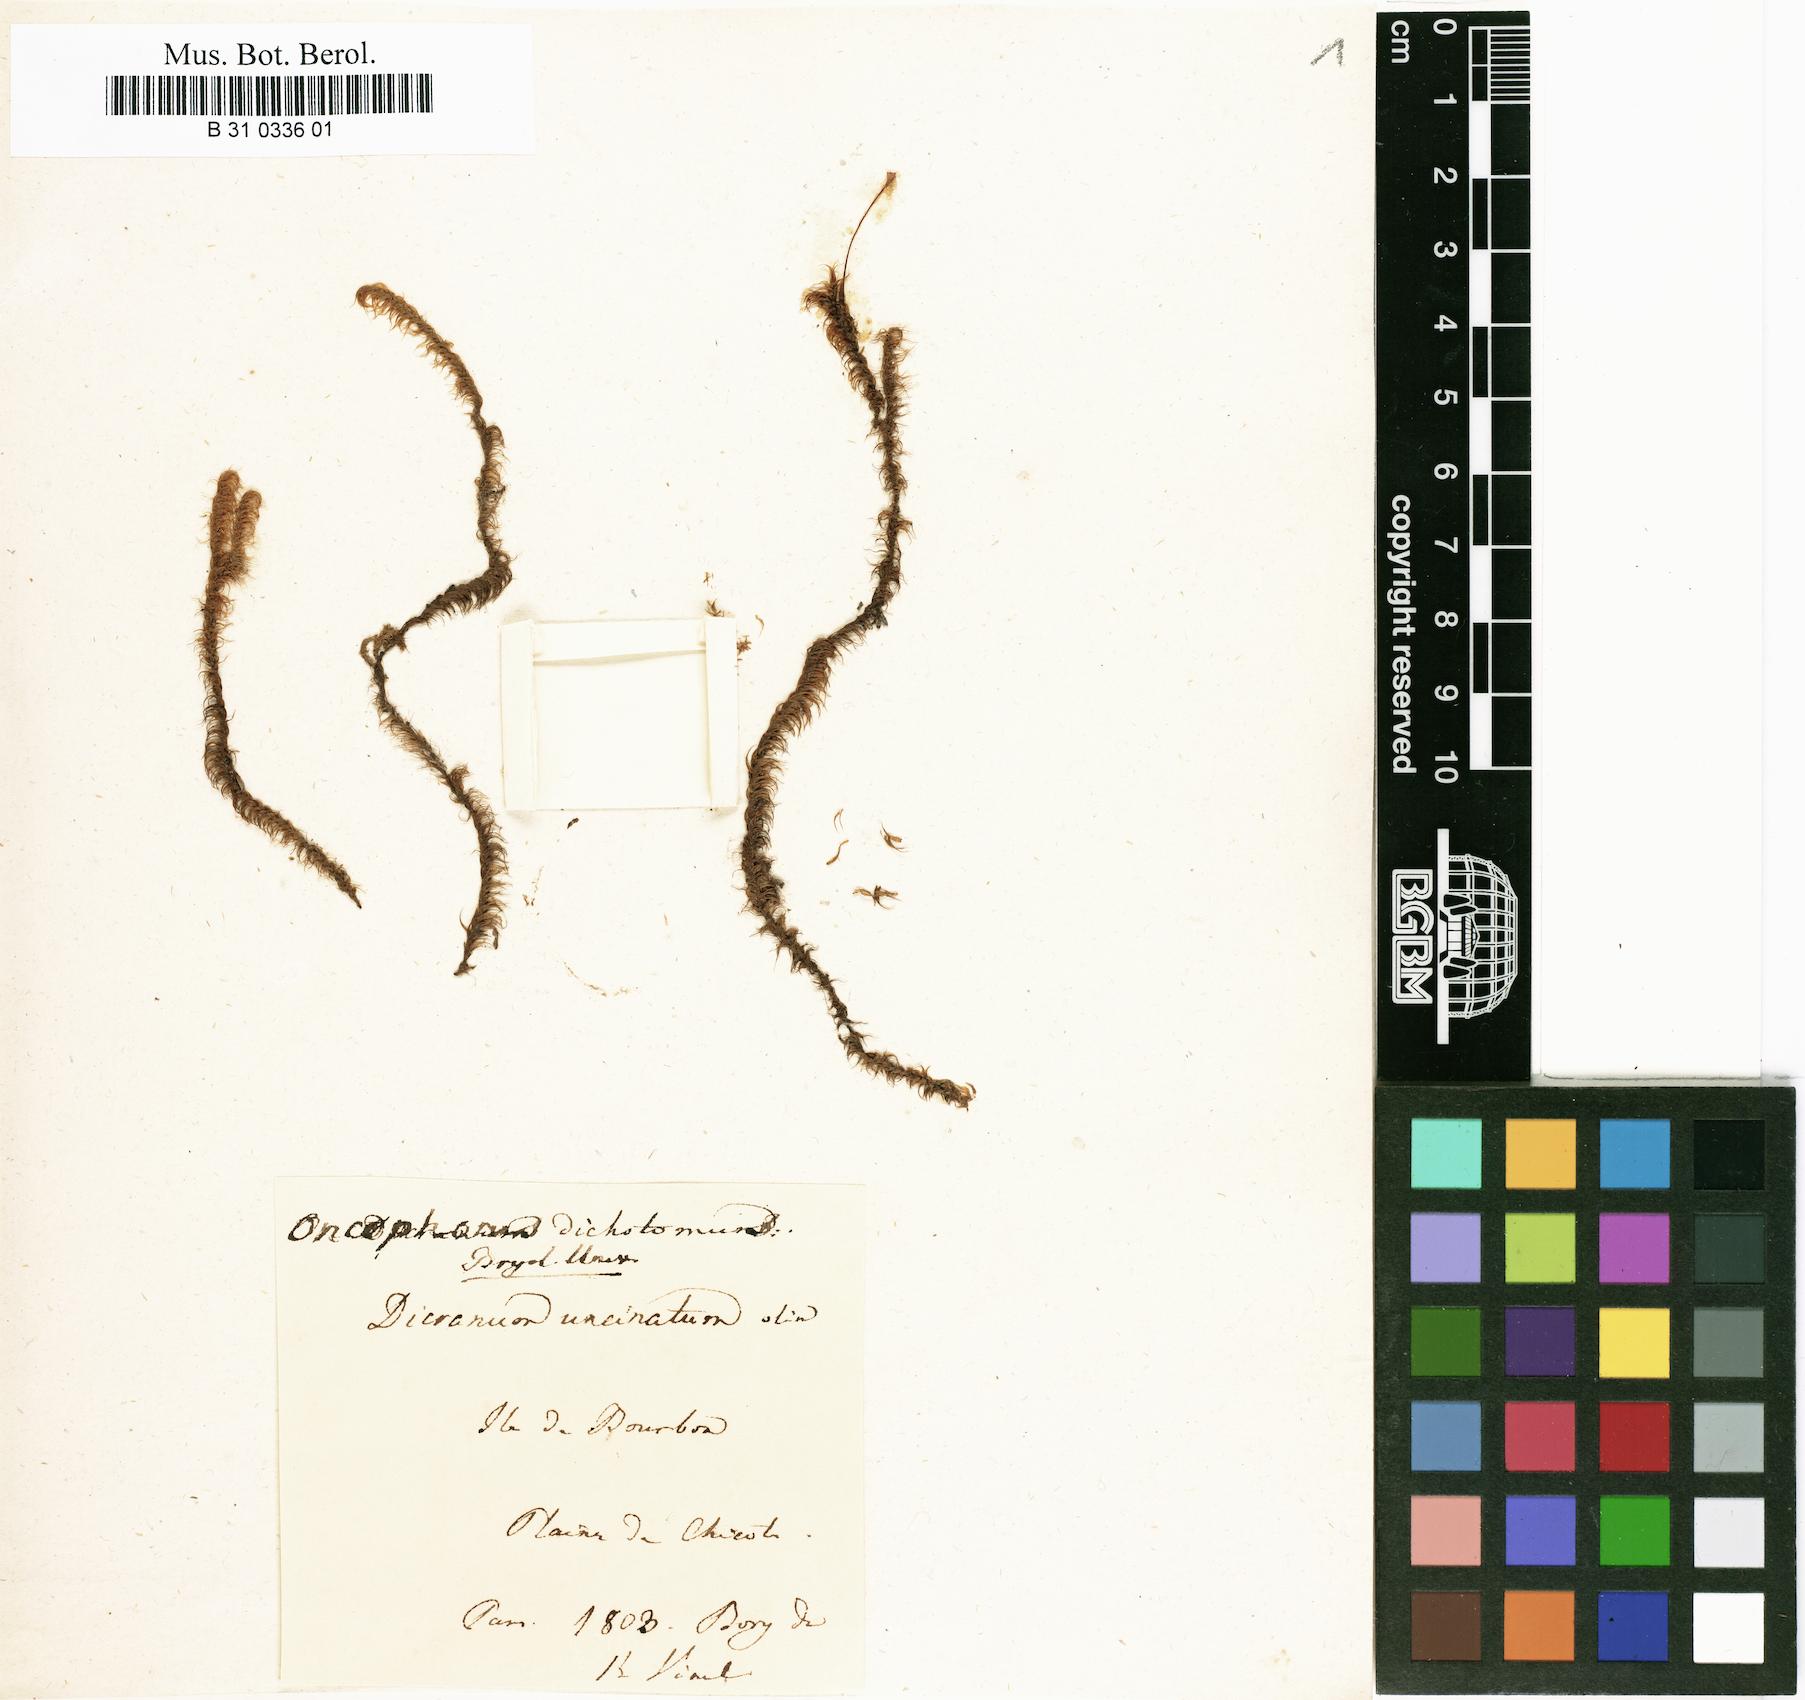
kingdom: Plantae
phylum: Bryophyta
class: Bryopsida
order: Dicranales
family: Dicranaceae
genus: Dicranoloma
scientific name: Dicranoloma billarderii
